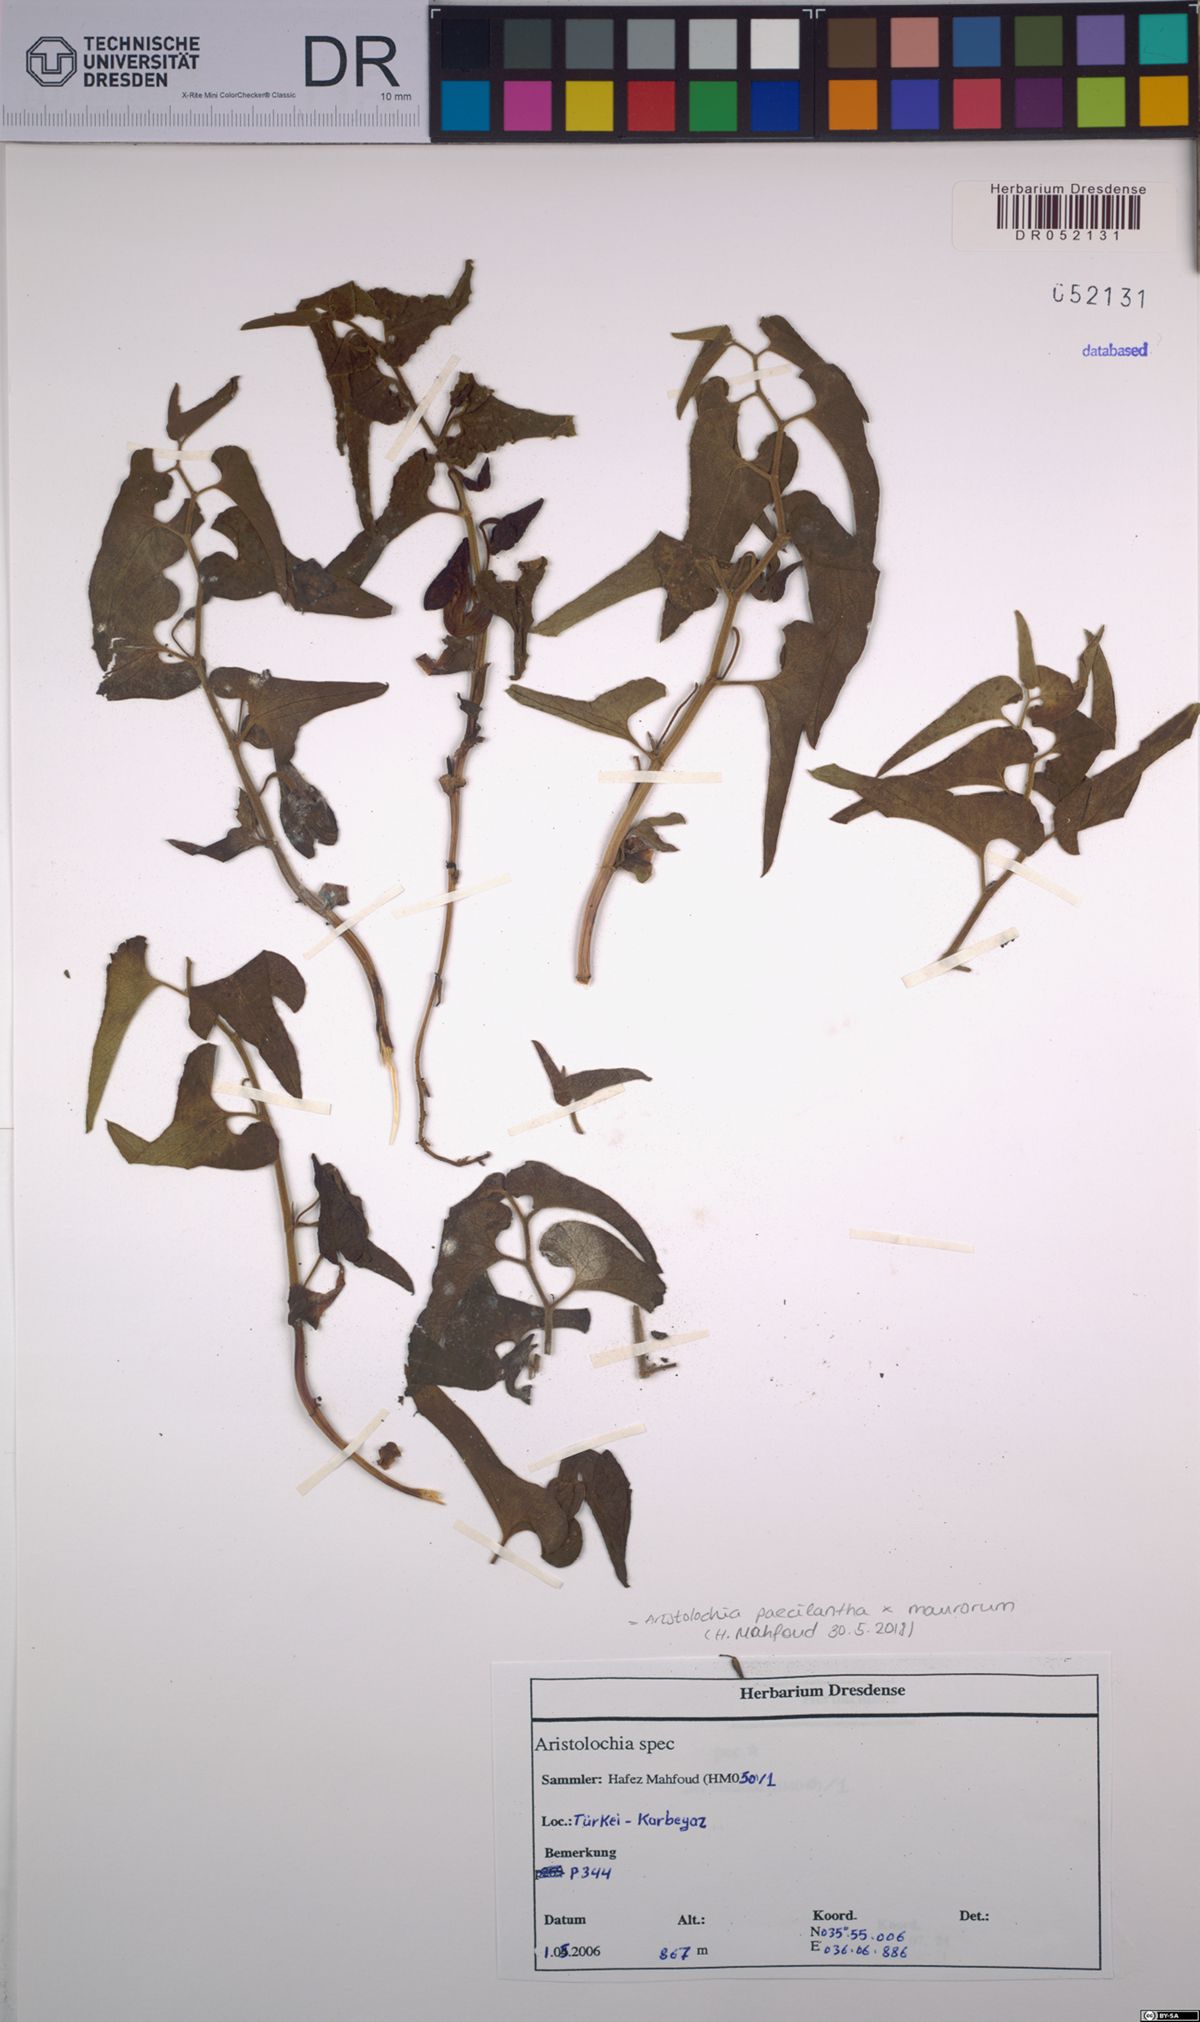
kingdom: Plantae
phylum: Tracheophyta
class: Magnoliopsida
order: Piperales
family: Aristolochiaceae
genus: Aristolochia
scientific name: Aristolochia paecilantha
